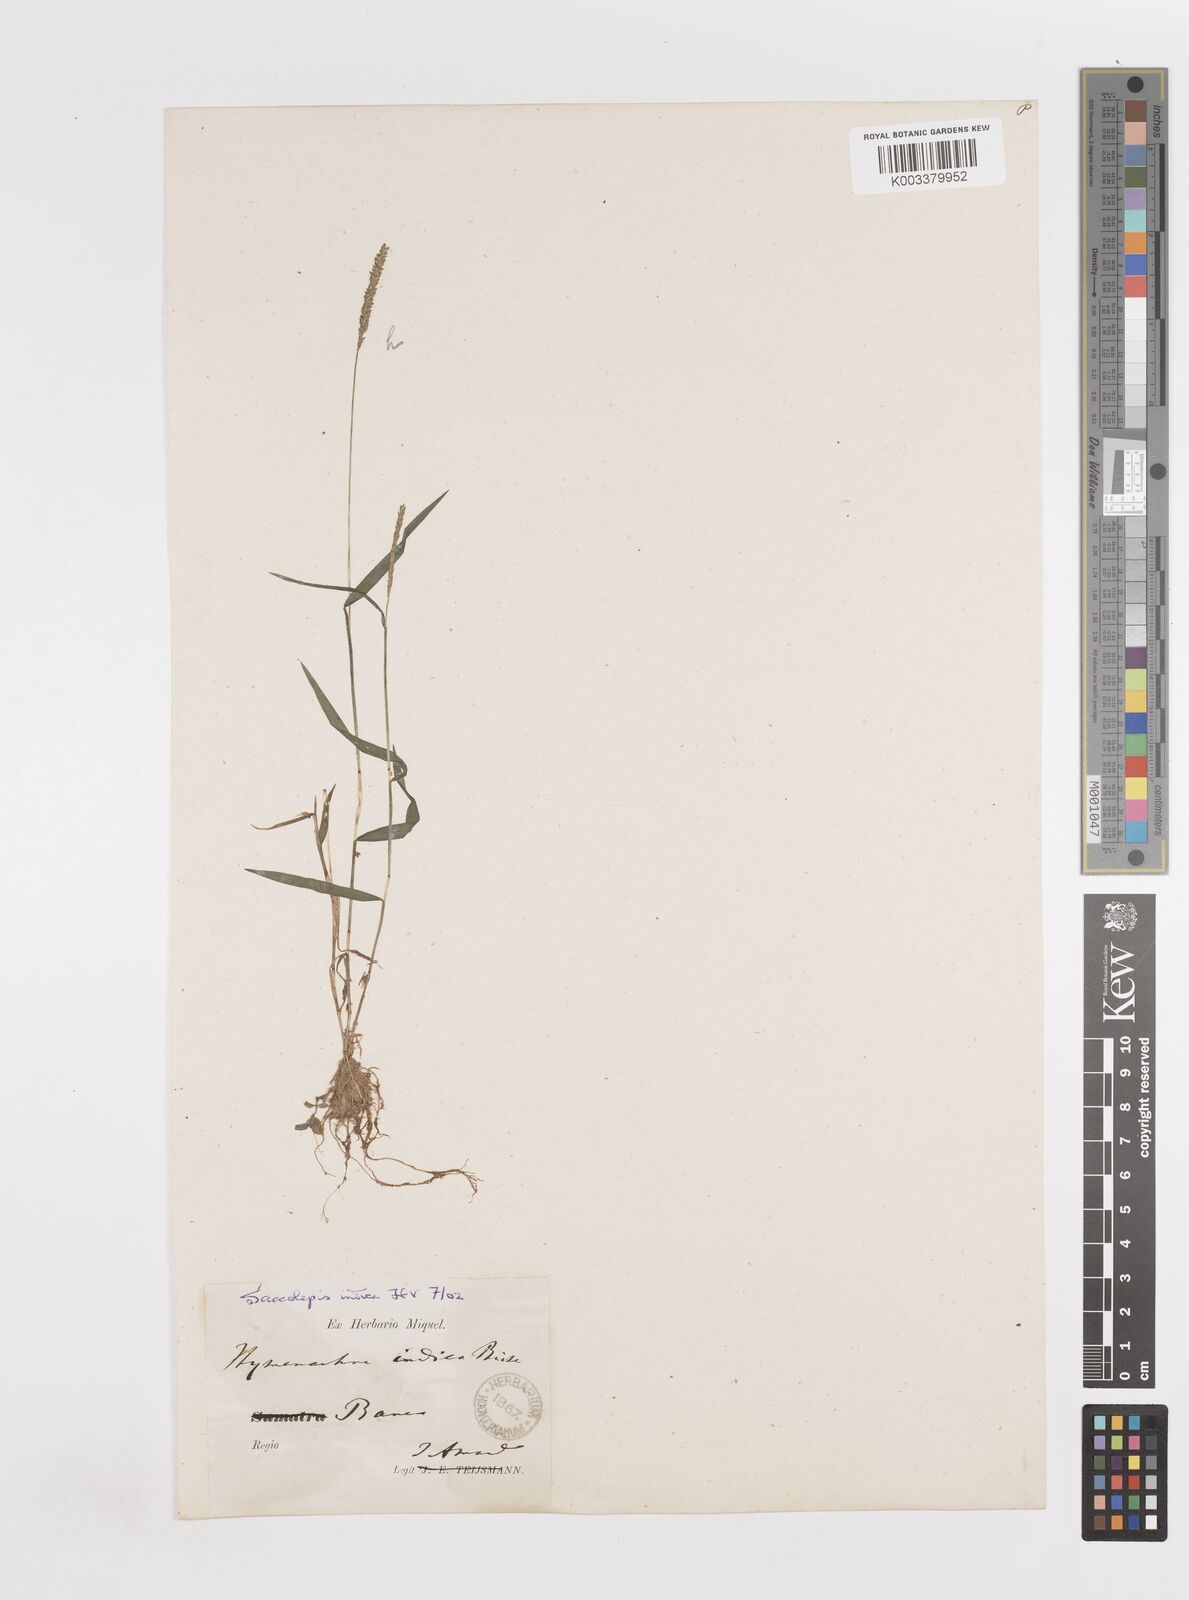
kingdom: Plantae
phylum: Tracheophyta
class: Liliopsida
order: Poales
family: Poaceae
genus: Sacciolepis
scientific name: Sacciolepis indica
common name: Glenwoodgrass
